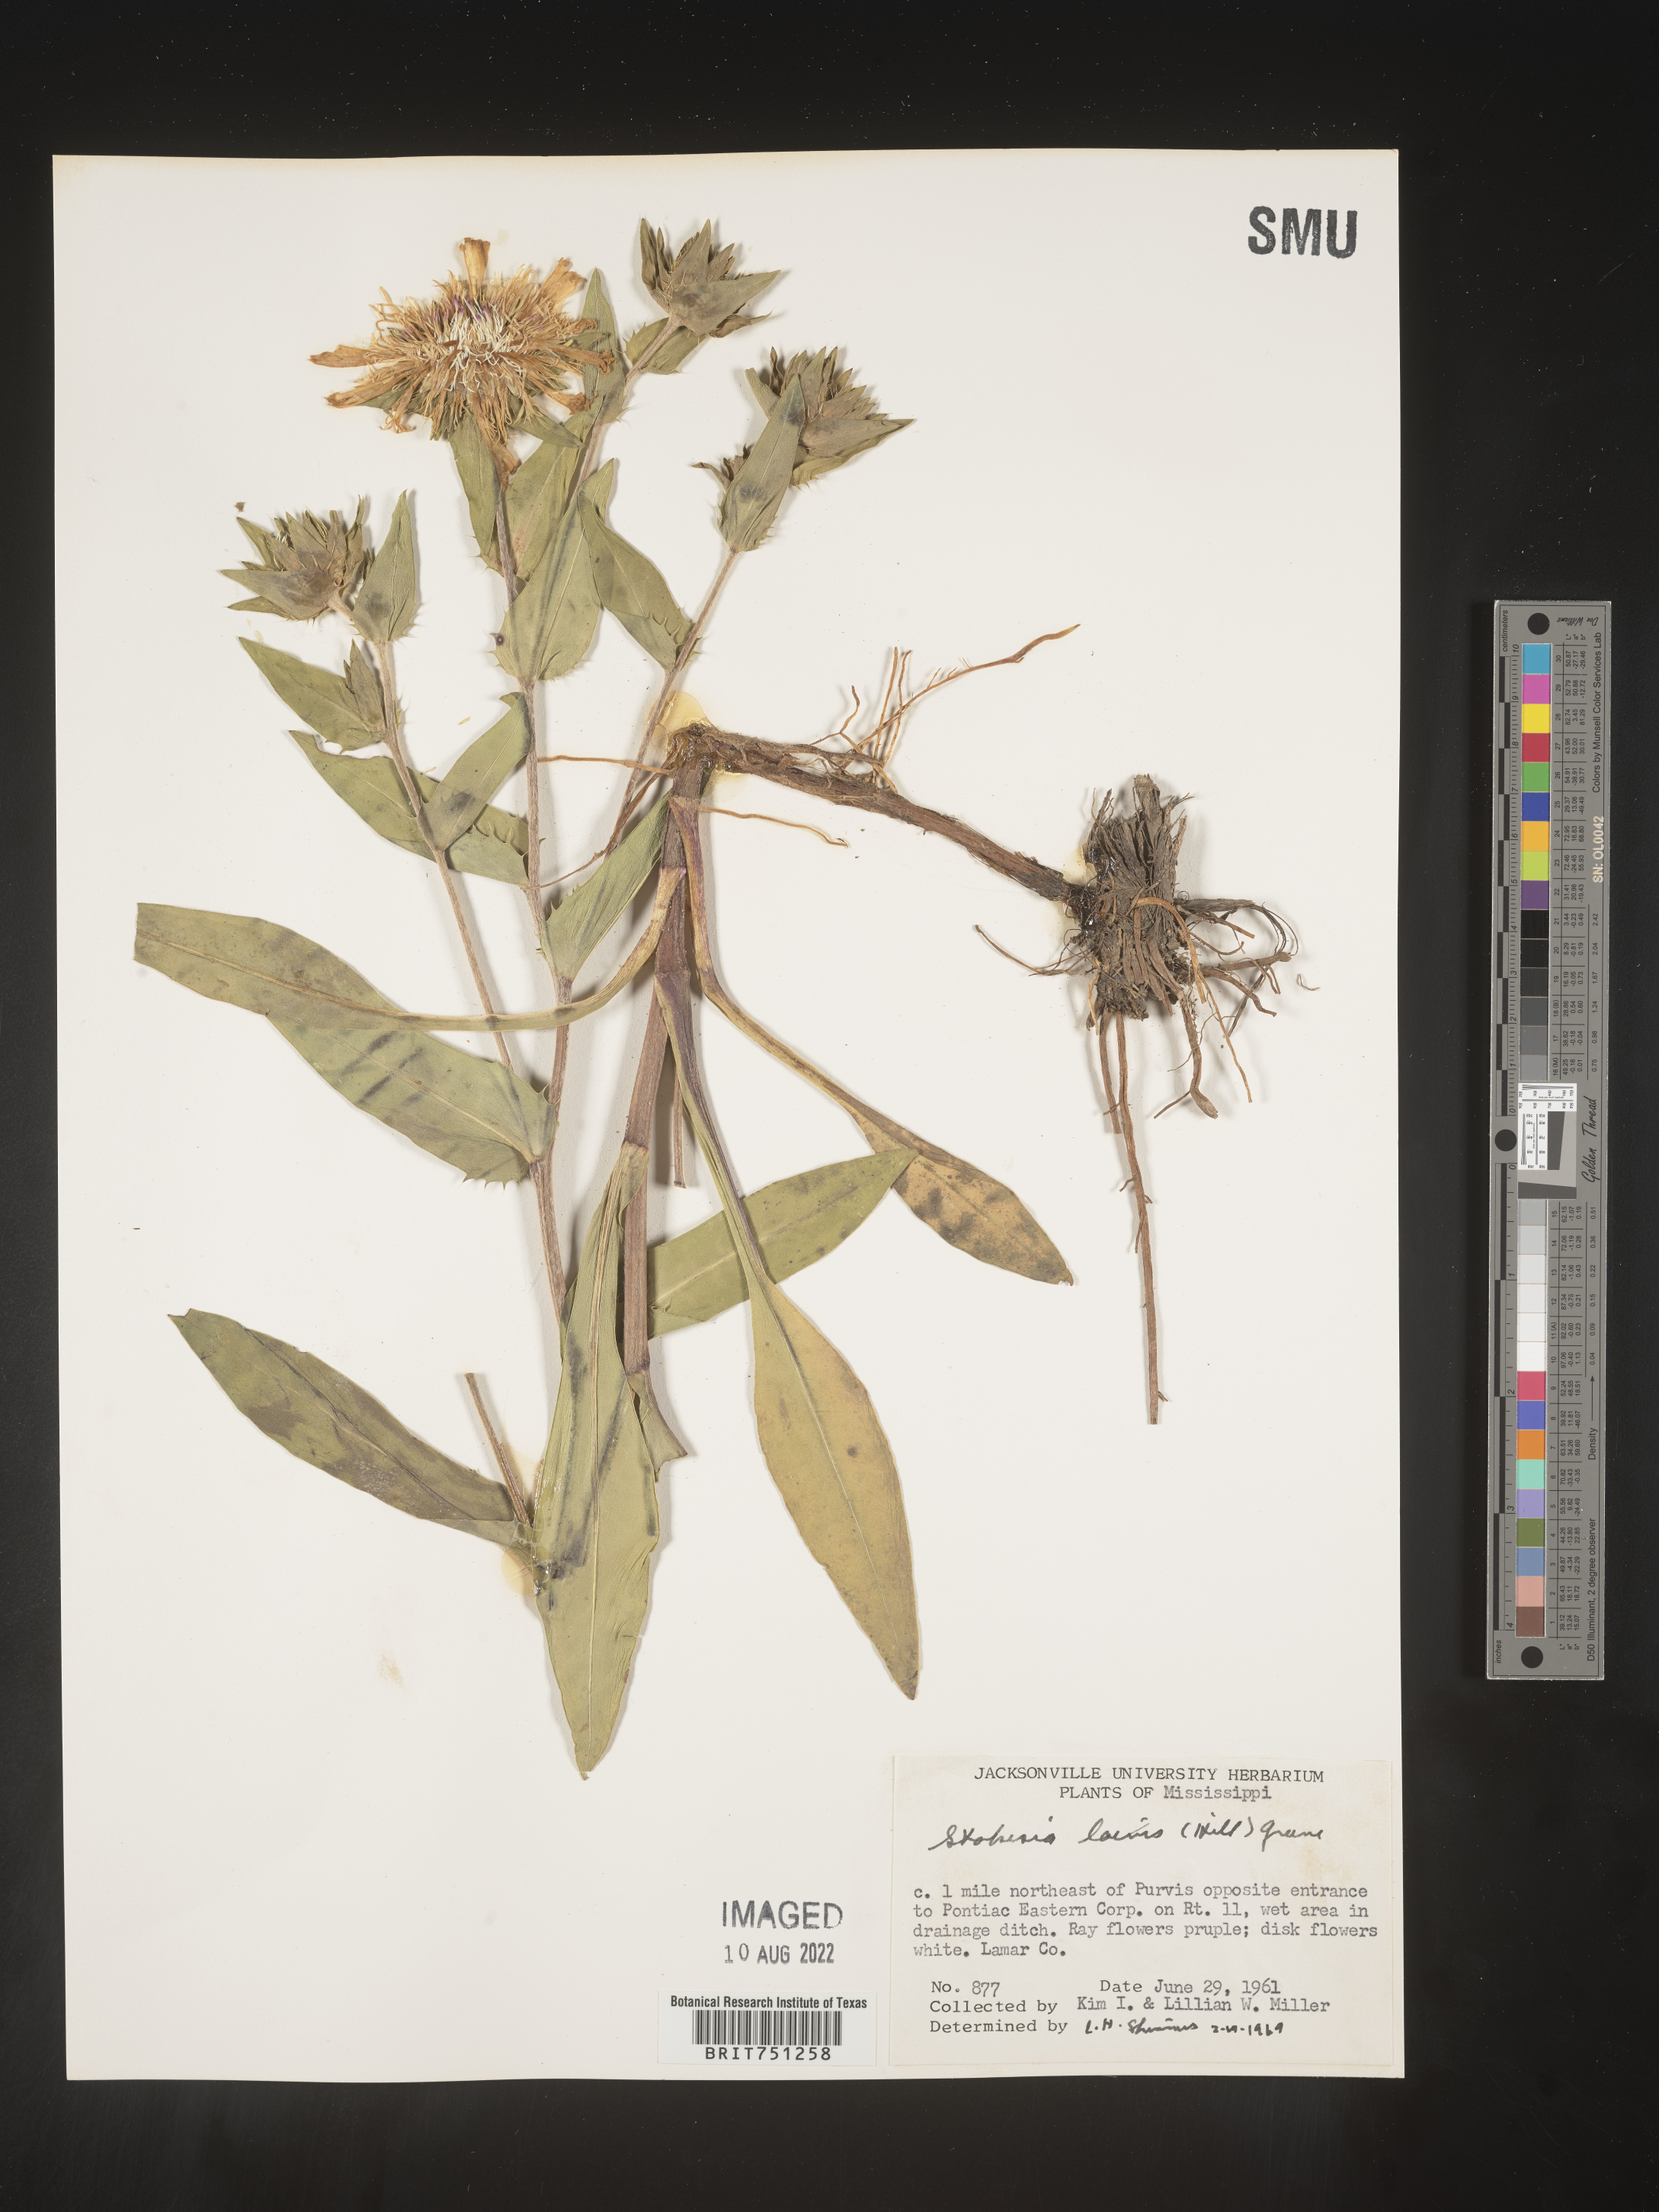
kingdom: Plantae
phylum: Tracheophyta
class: Magnoliopsida
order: Asterales
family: Asteraceae
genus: Stokesia
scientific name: Stokesia
